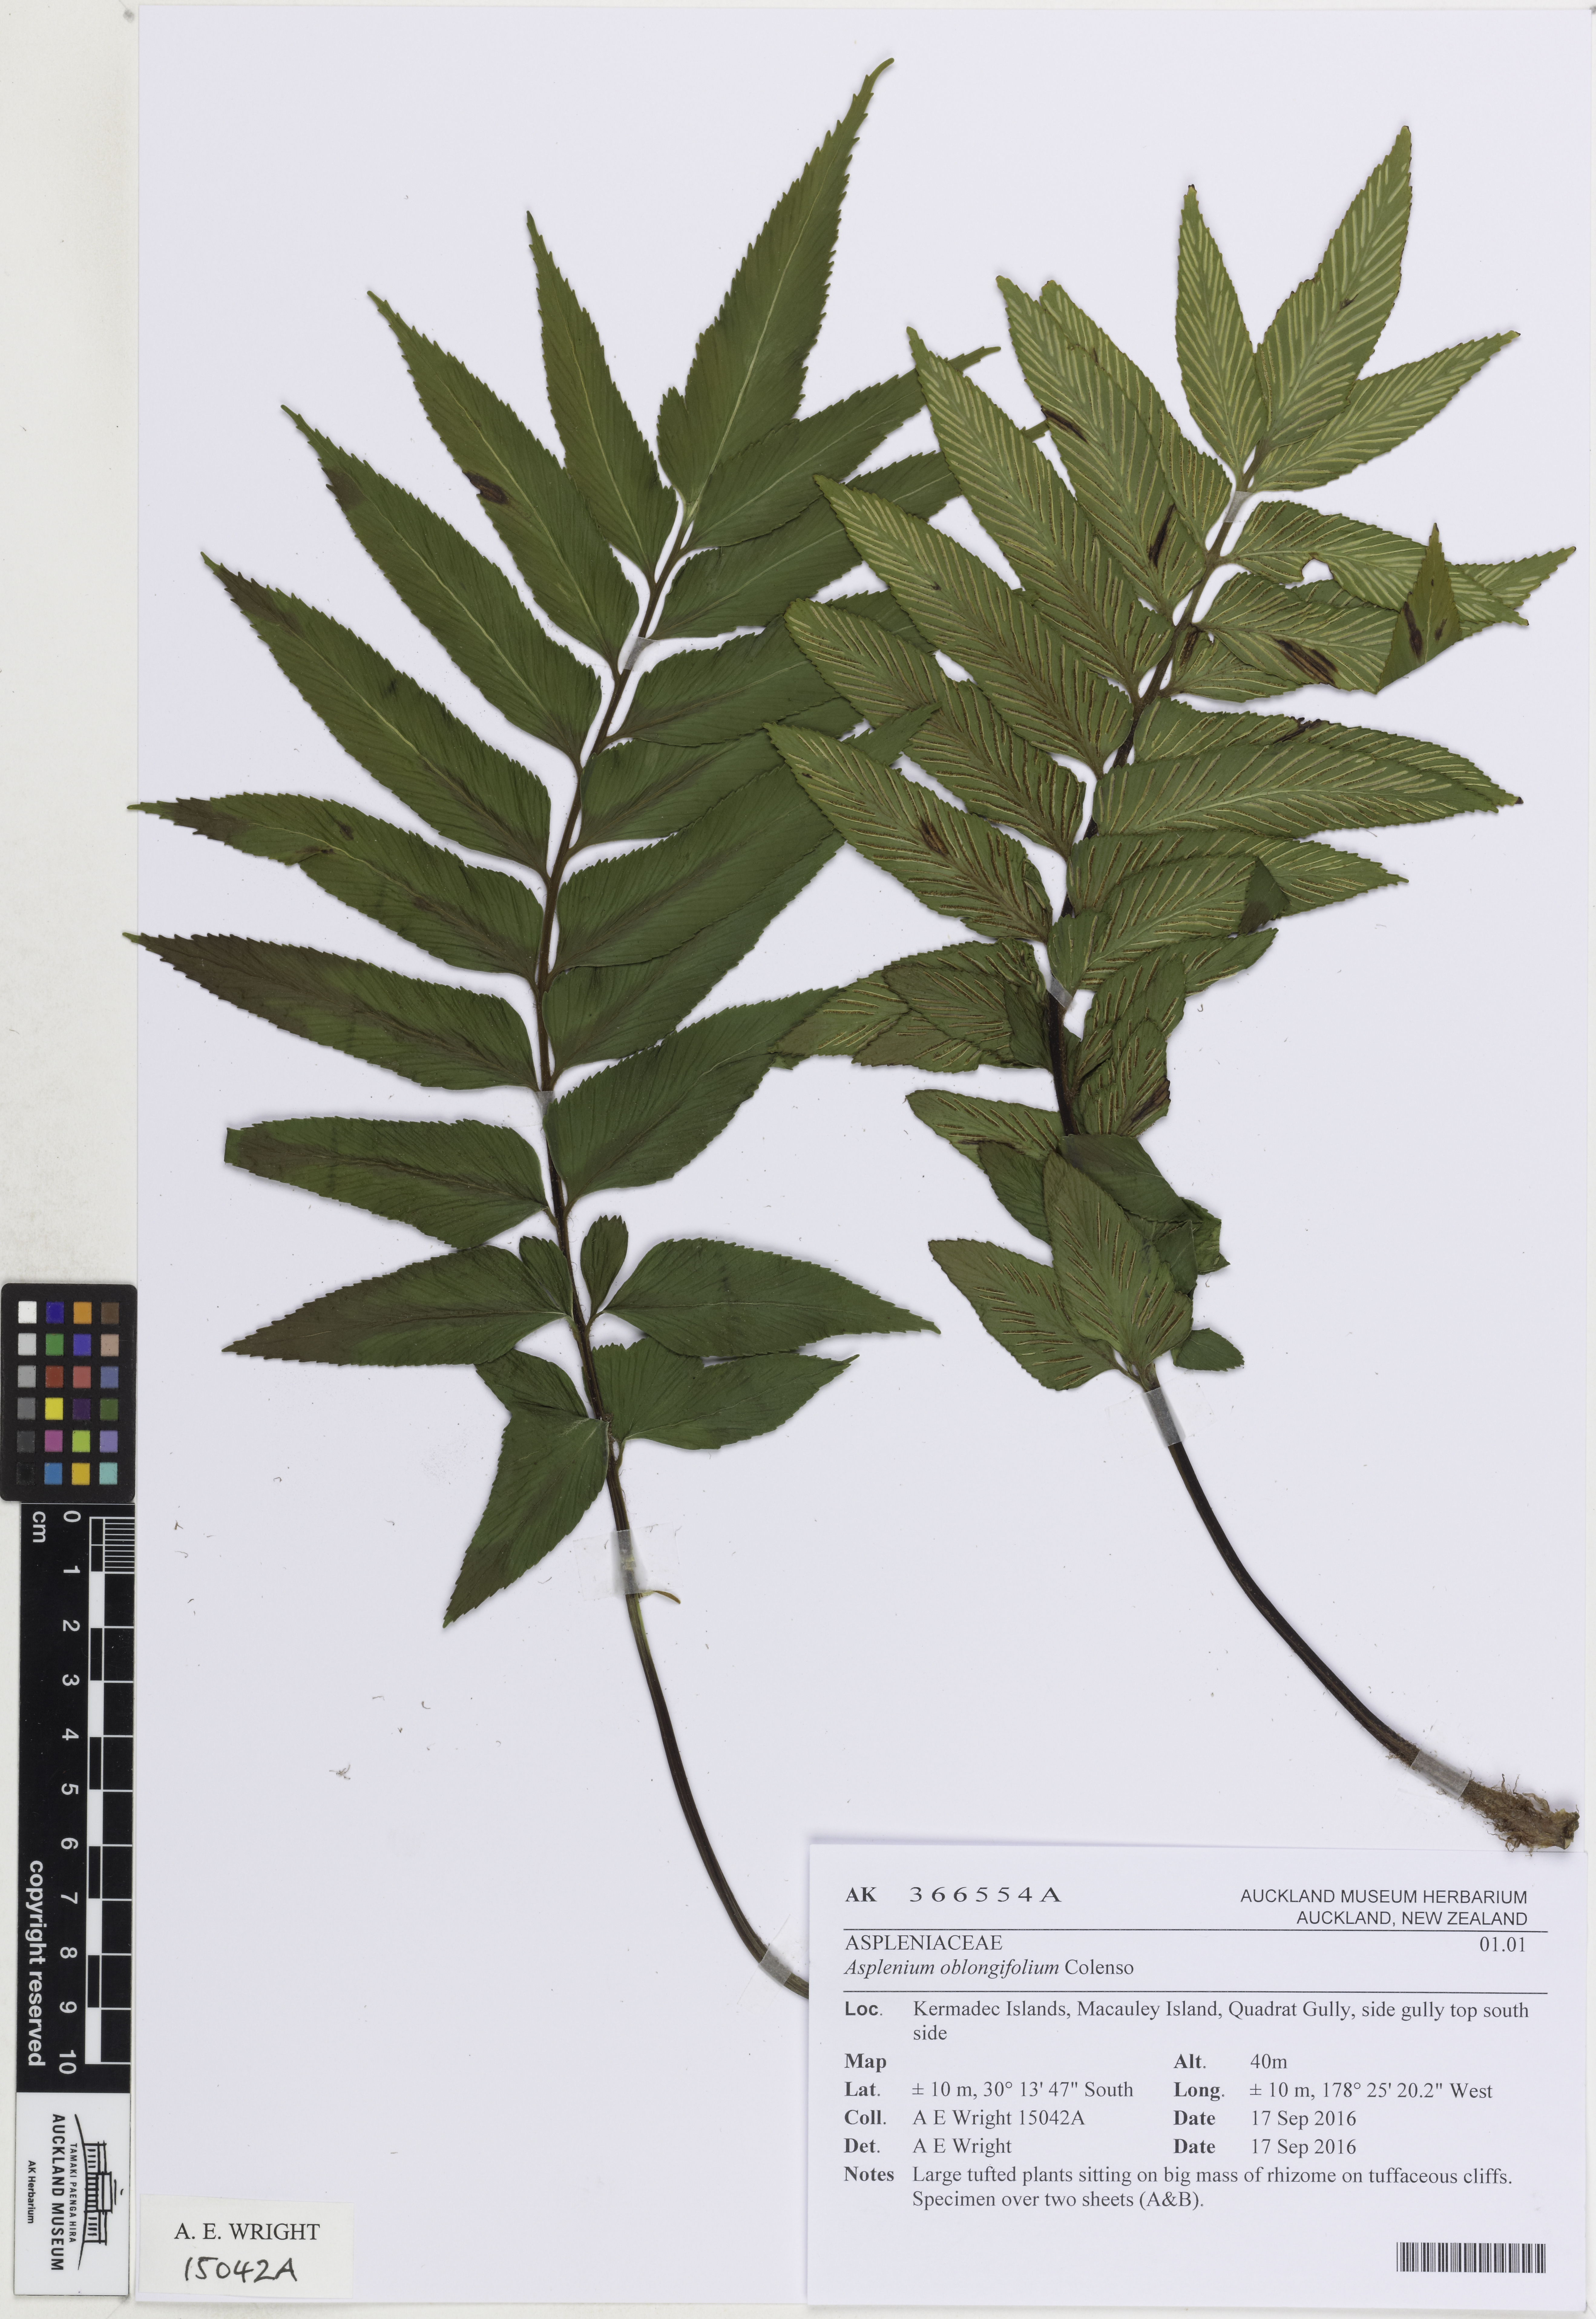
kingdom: Plantae
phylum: Tracheophyta
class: Polypodiopsida
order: Polypodiales
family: Aspleniaceae
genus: Asplenium
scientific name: Asplenium oblongifolium
